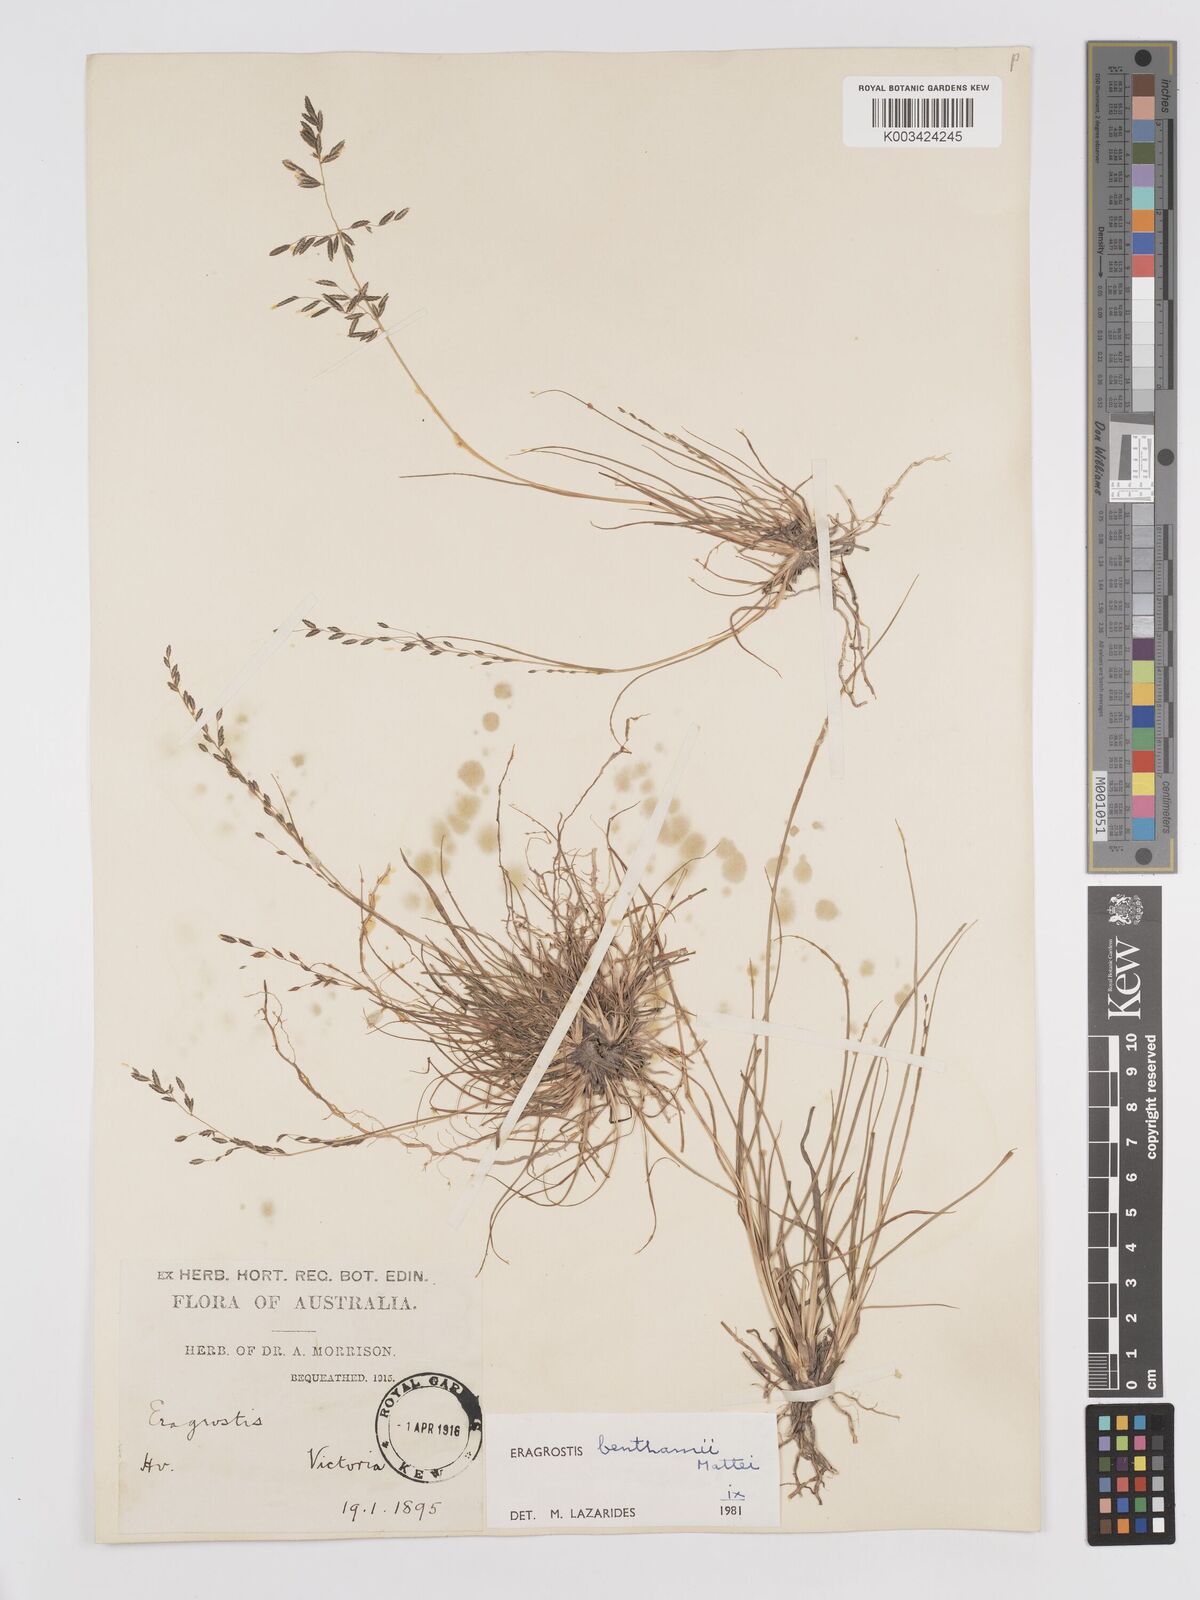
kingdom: Plantae
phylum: Tracheophyta
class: Liliopsida
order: Poales
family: Poaceae
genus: Eragrostis
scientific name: Eragrostis brownii
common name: Lovegrass
